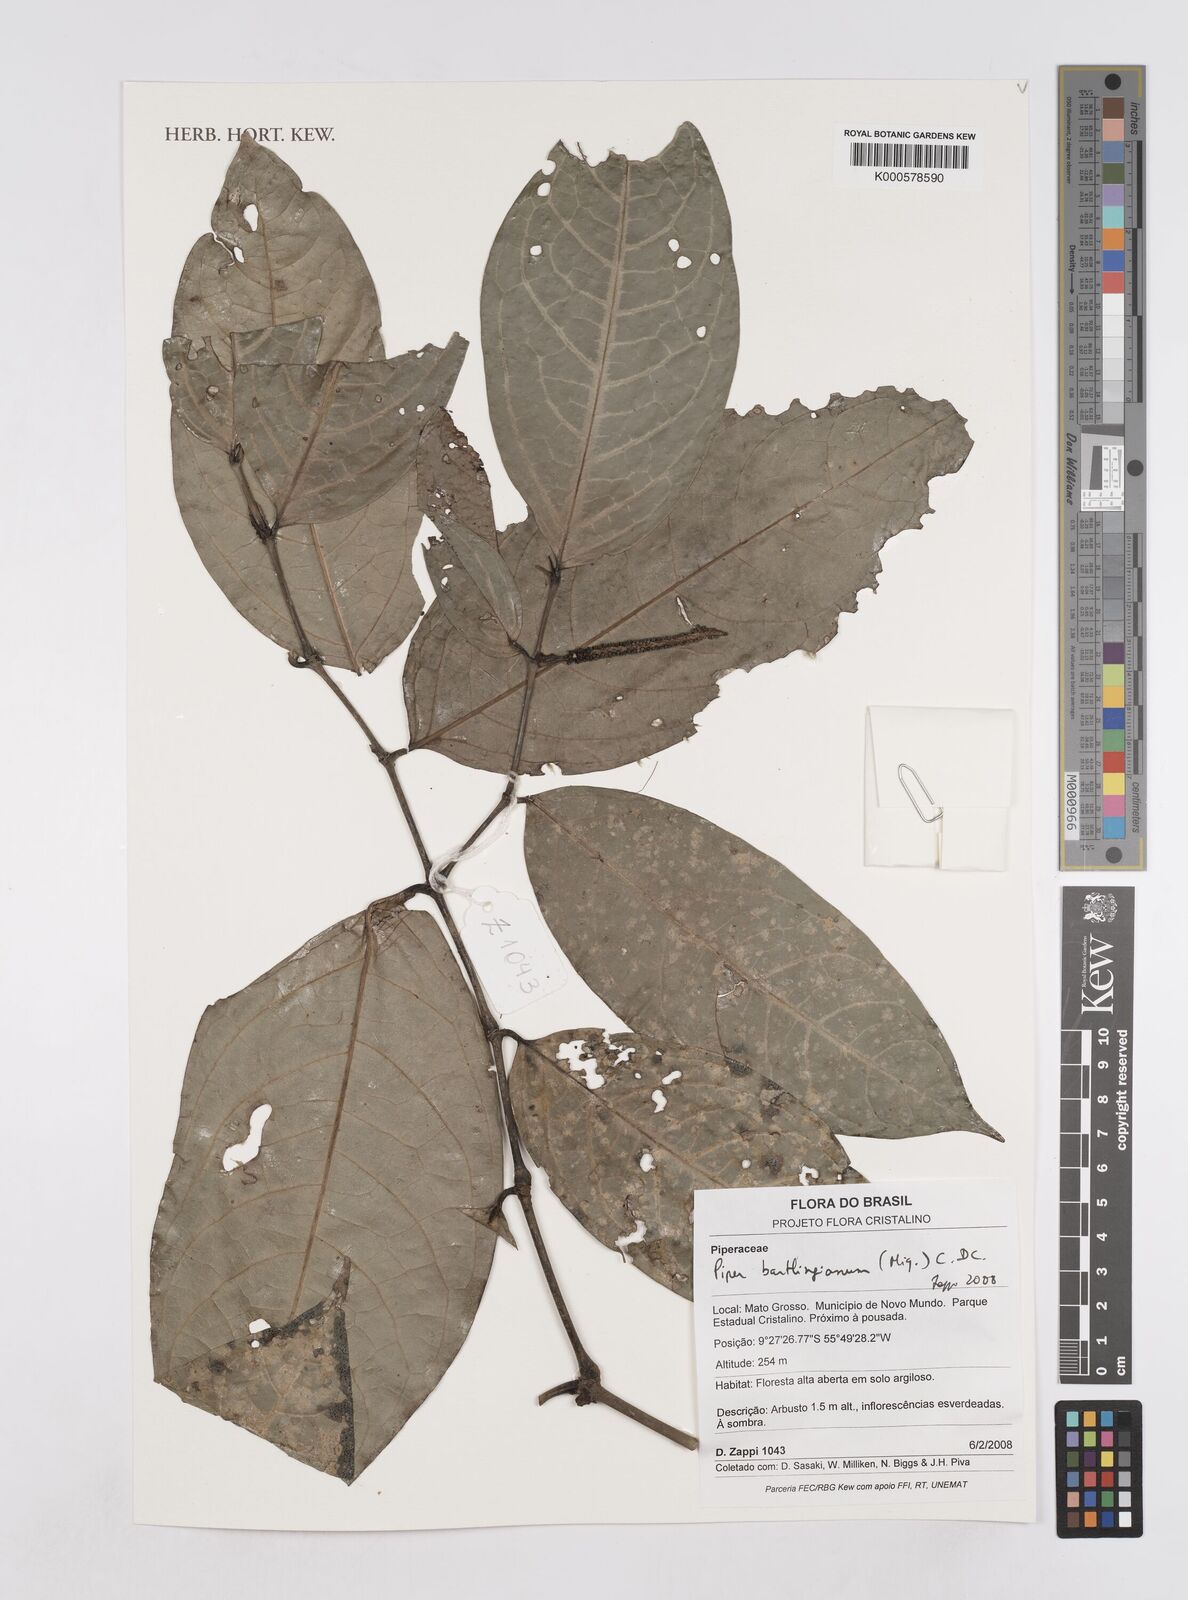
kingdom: Plantae
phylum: Tracheophyta
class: Magnoliopsida
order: Piperales
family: Piperaceae
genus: Piper
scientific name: Piper bartlingianum
